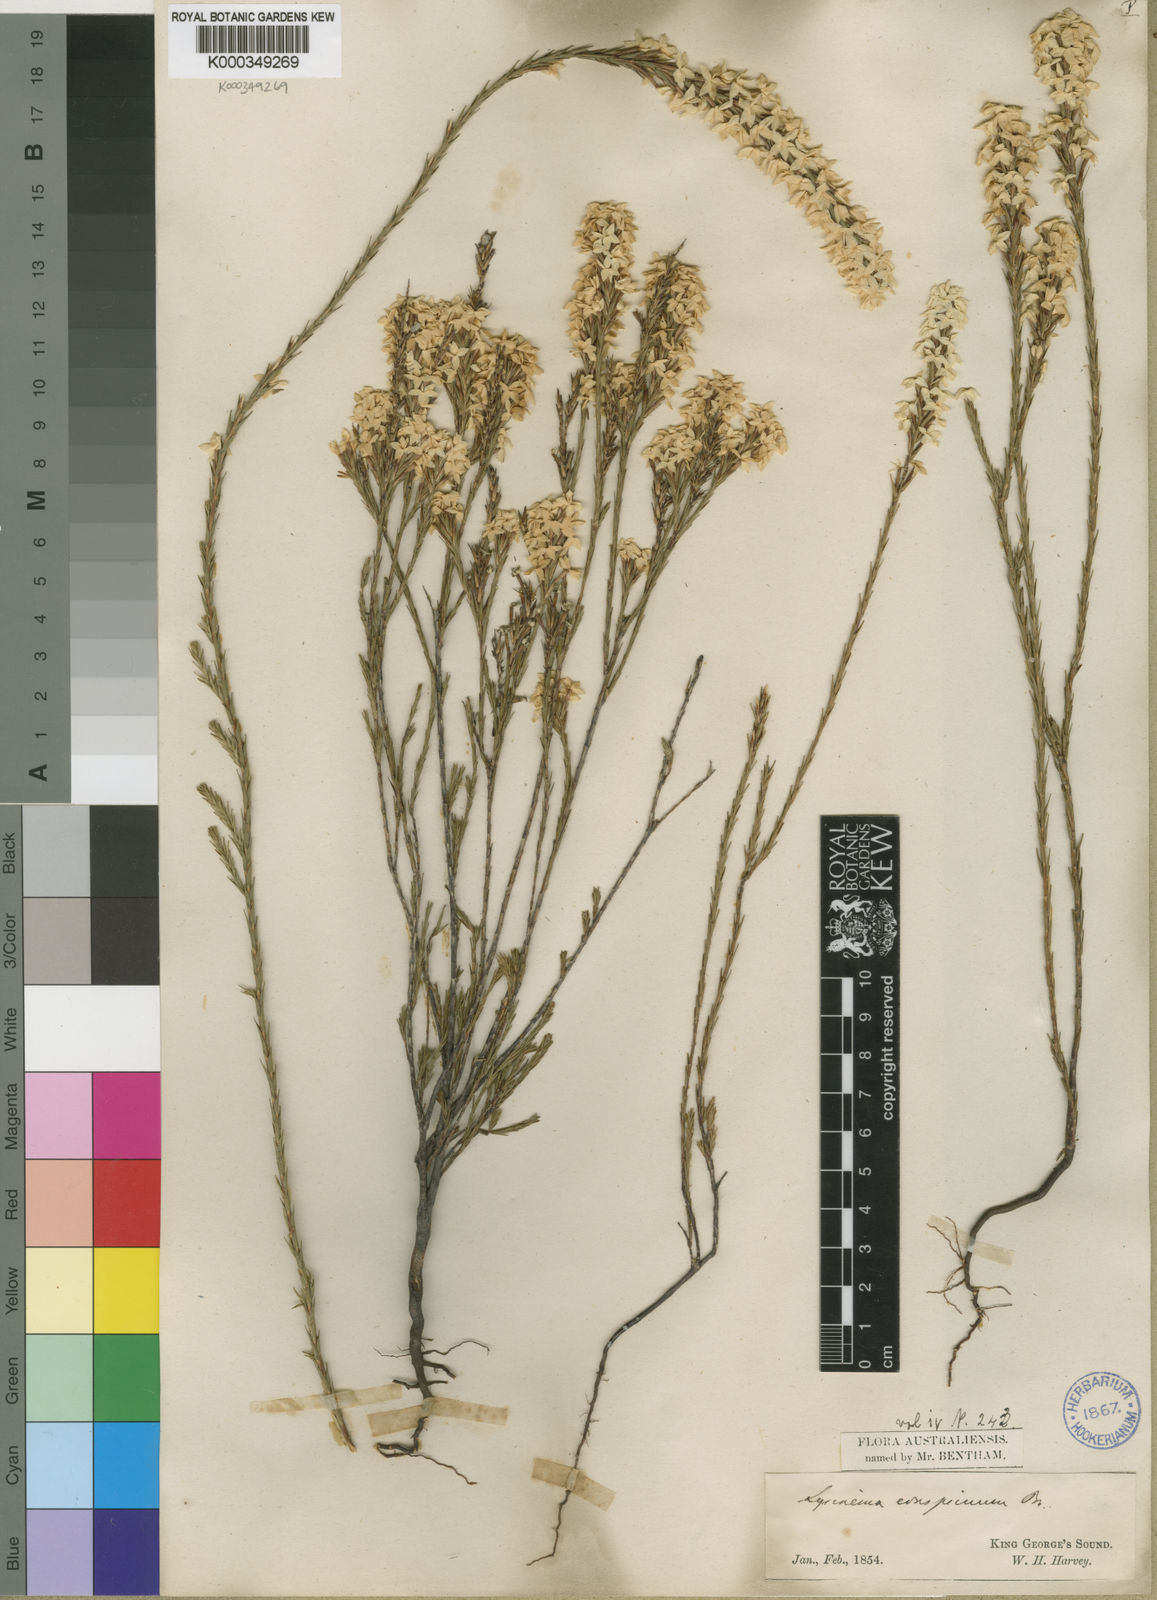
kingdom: Plantae
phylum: Tracheophyta
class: Magnoliopsida
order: Ericales
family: Ericaceae
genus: Lysinema
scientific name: Lysinema conspicuum
